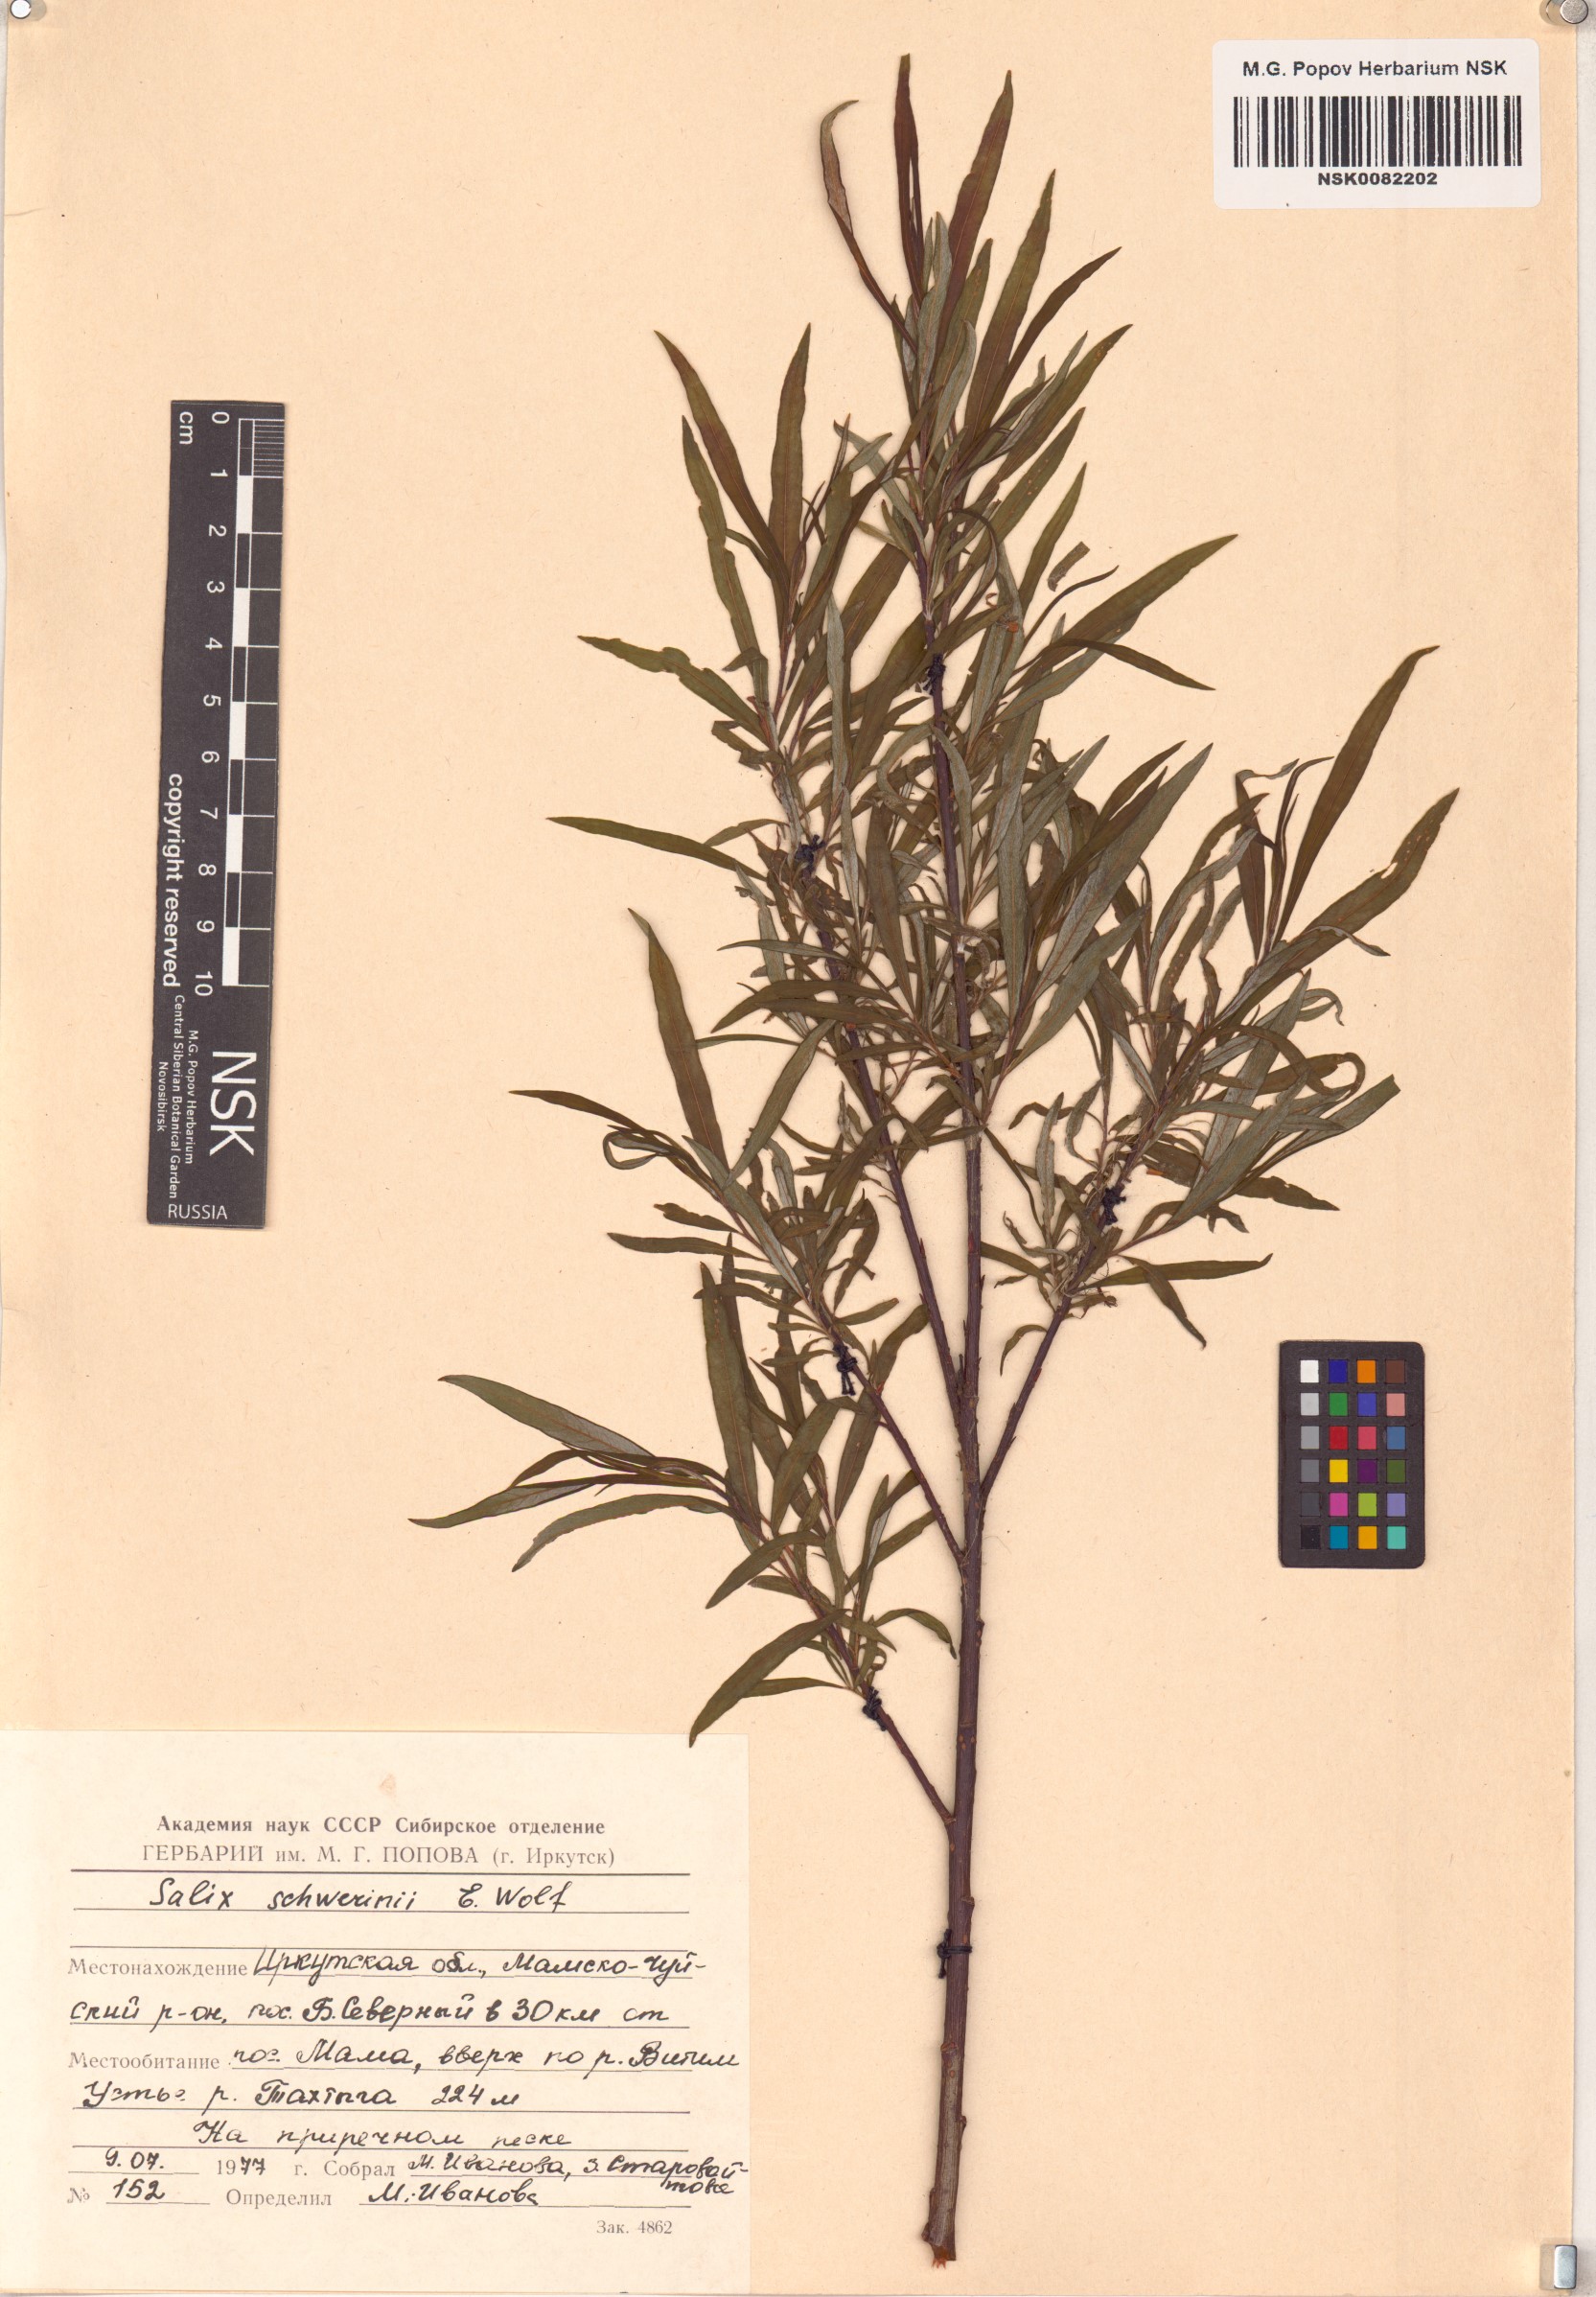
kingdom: Plantae
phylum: Tracheophyta
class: Magnoliopsida
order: Malpighiales
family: Salicaceae
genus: Salix
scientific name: Salix schwerinii
